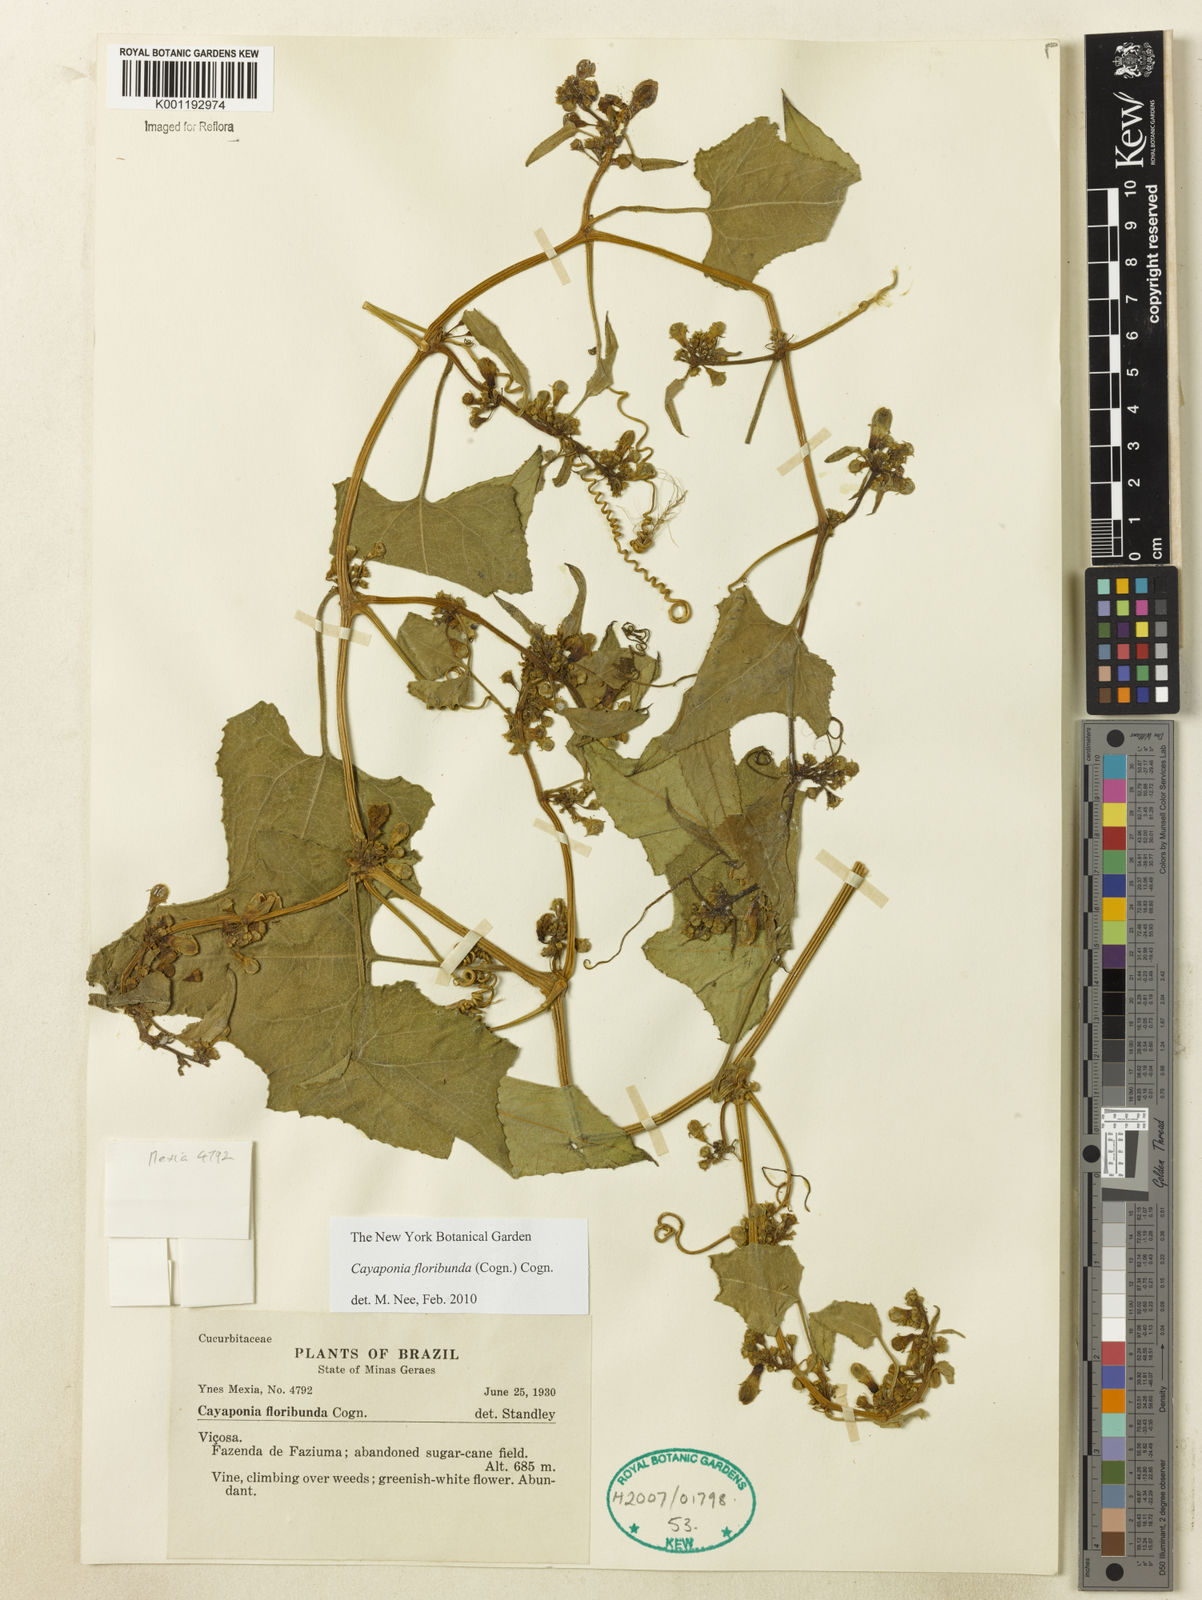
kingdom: Plantae
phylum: Tracheophyta
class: Magnoliopsida
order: Cucurbitales
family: Cucurbitaceae
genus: Cayaponia
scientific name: Cayaponia floribunda
